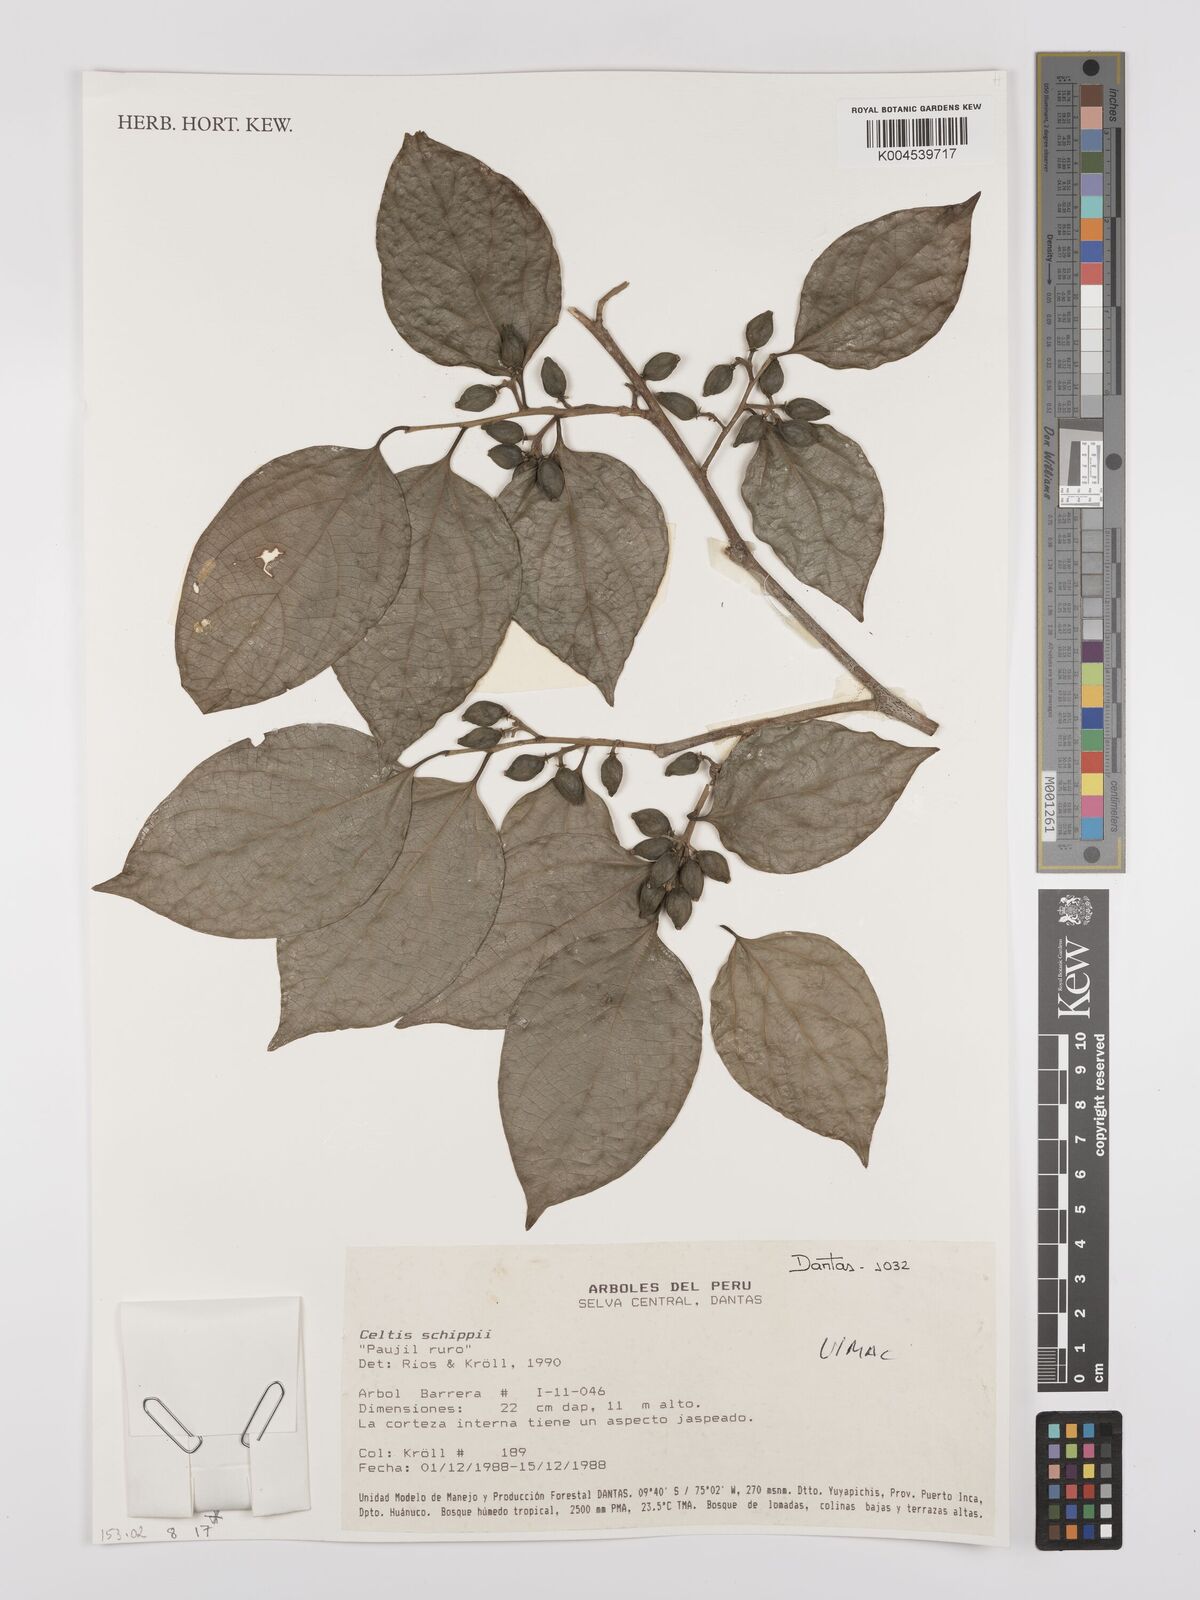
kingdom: Plantae
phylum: Tracheophyta
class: Magnoliopsida
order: Rosales
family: Cannabaceae
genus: Celtis
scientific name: Celtis schippii
